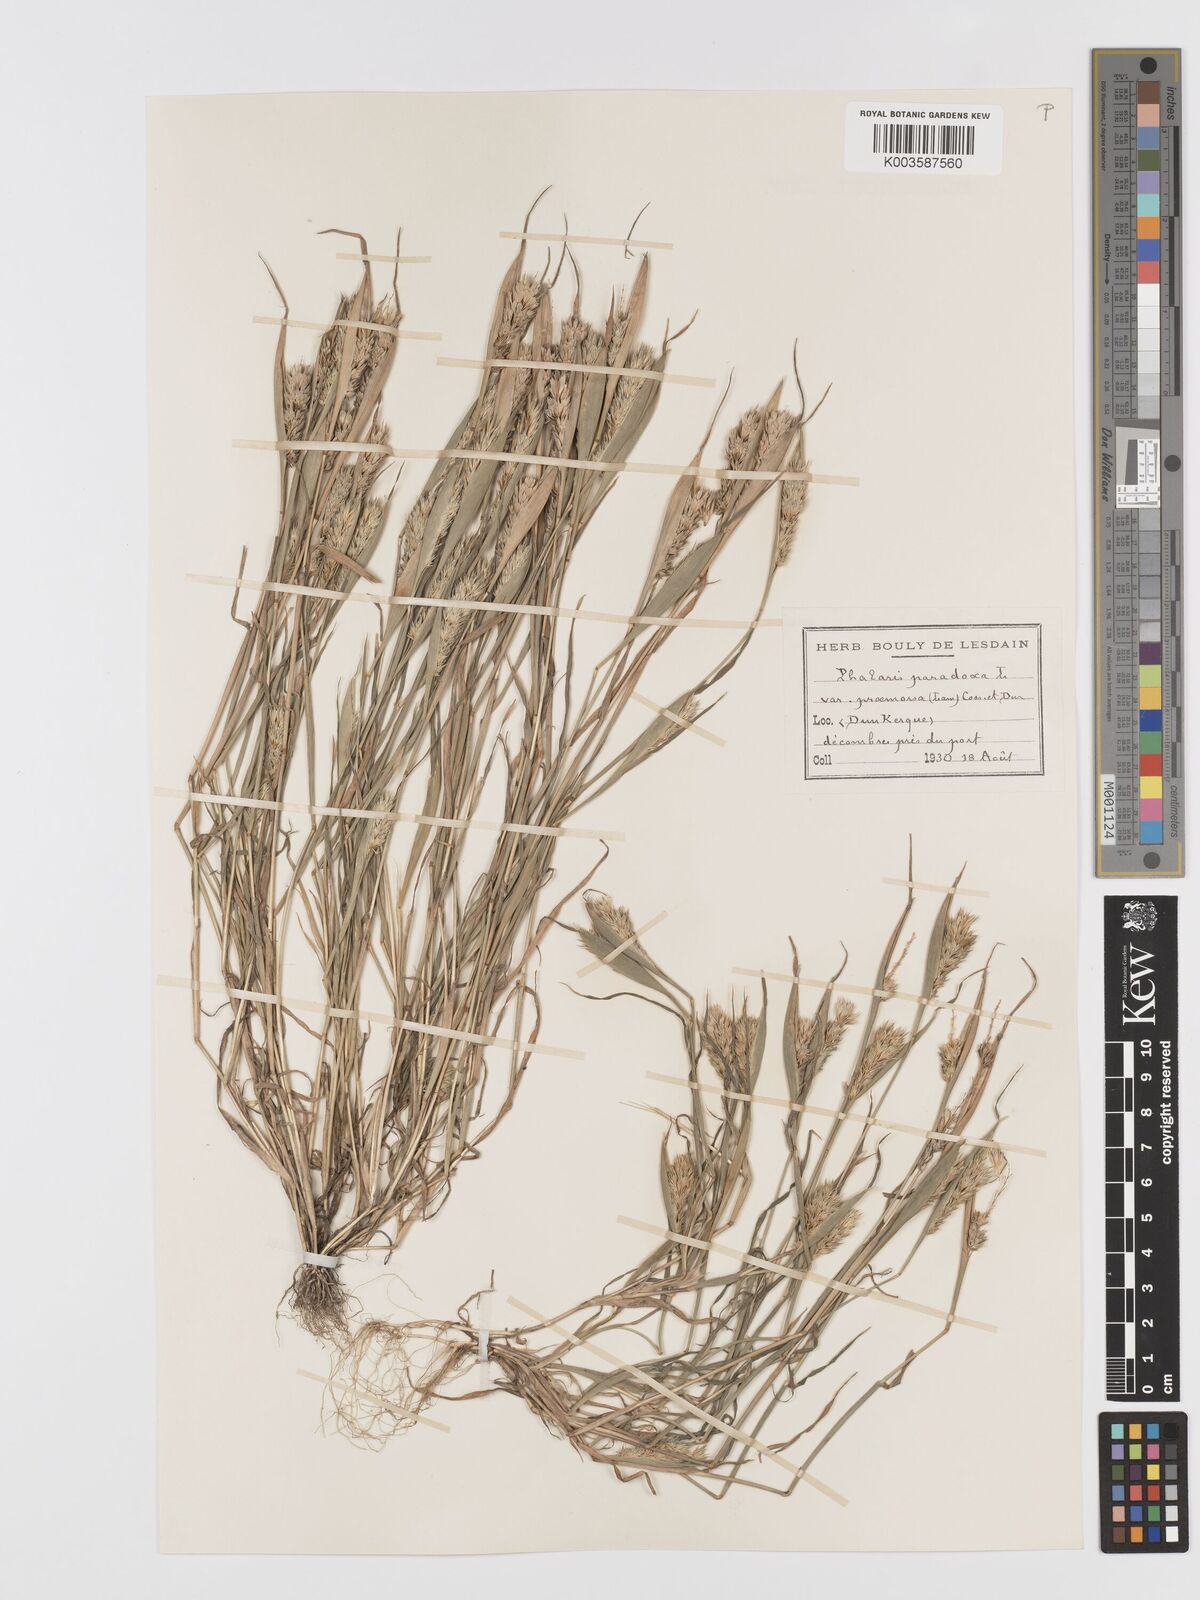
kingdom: Plantae
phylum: Tracheophyta
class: Liliopsida
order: Poales
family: Poaceae
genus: Phalaris
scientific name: Phalaris paradoxa
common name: Awned canary-grass
